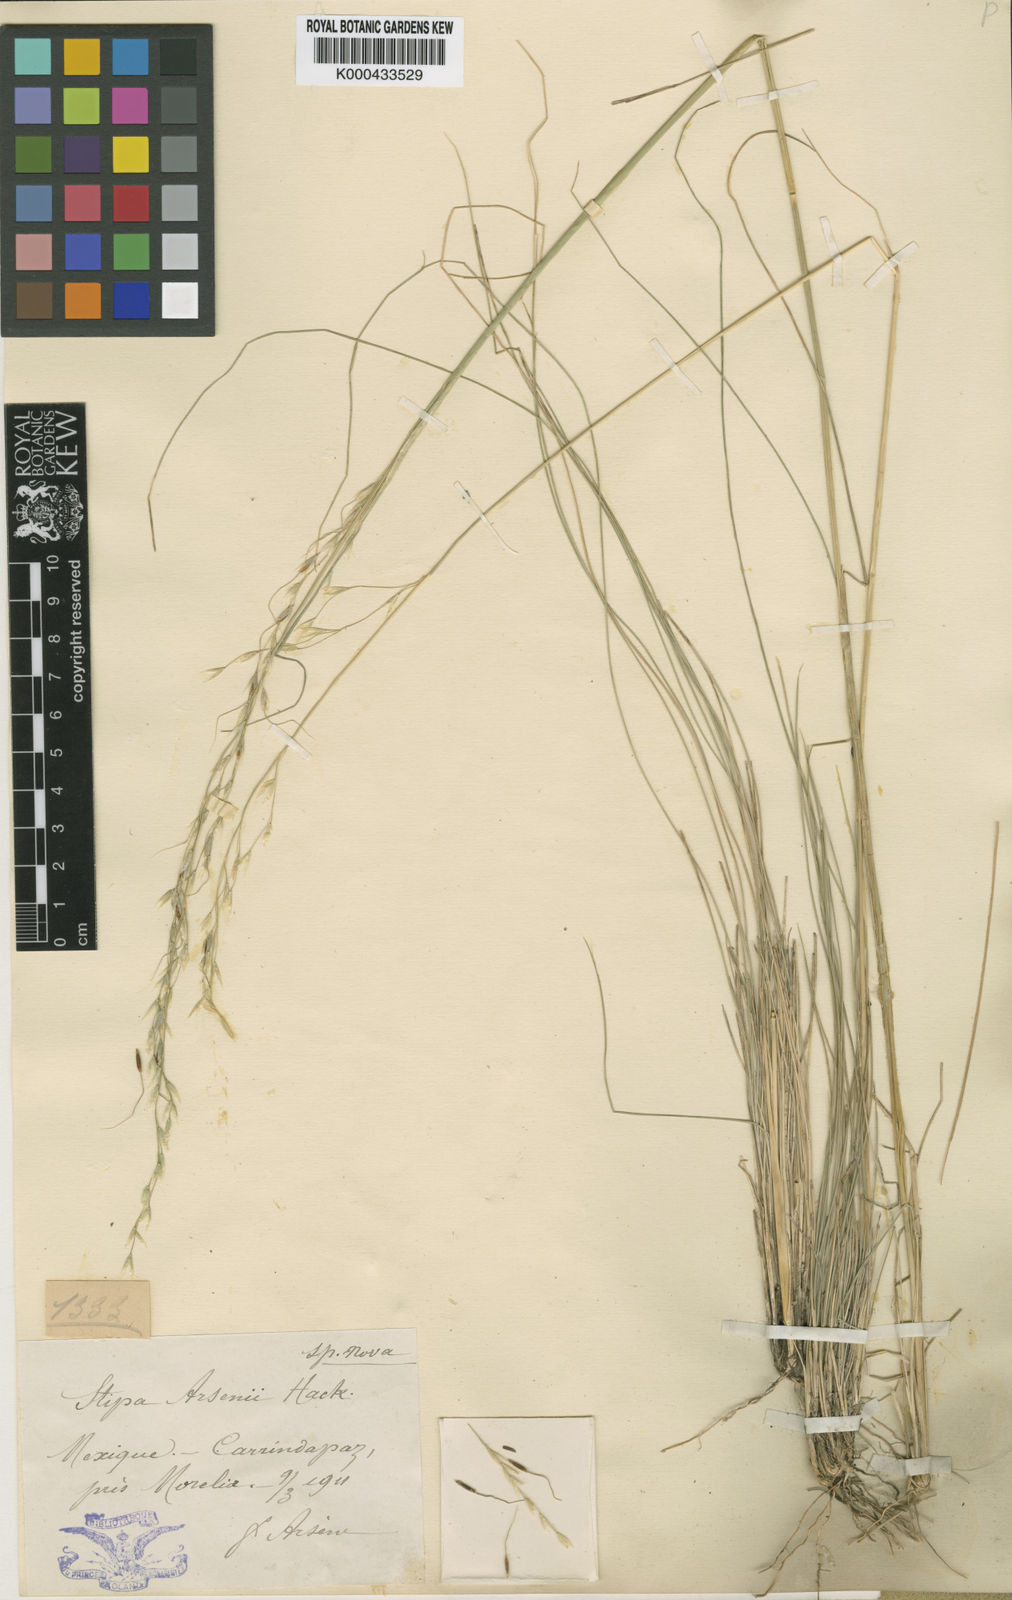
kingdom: Plantae
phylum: Tracheophyta
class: Liliopsida
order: Poales
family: Poaceae
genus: Piptochaetium
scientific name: Piptochaetium virescens
